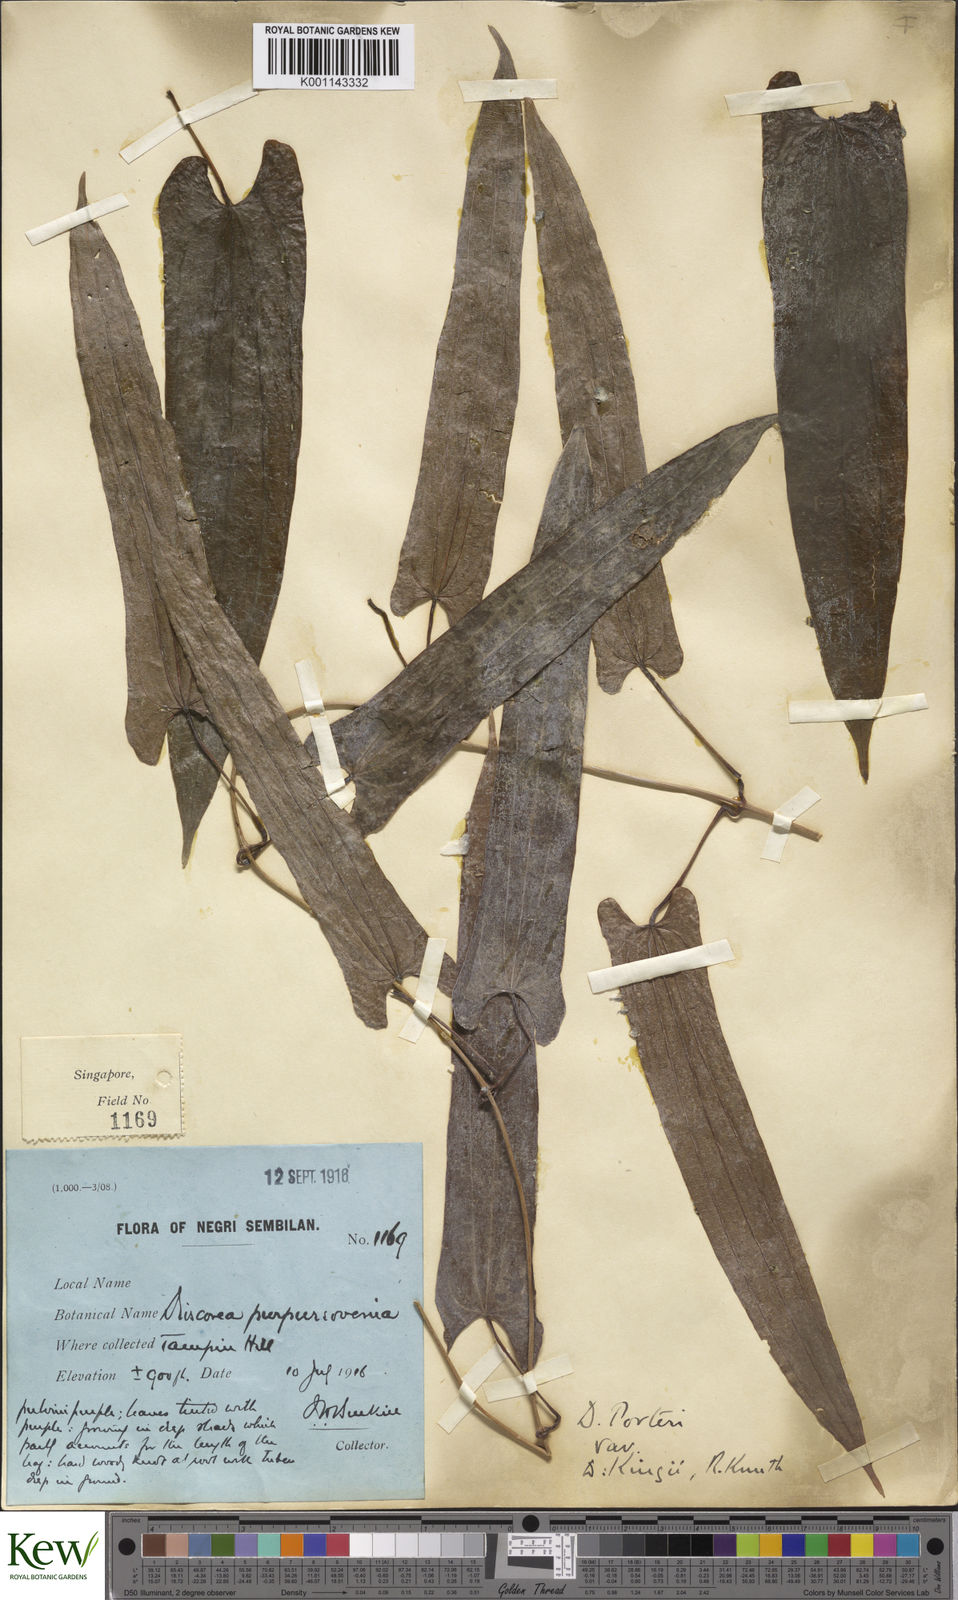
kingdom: Plantae
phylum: Tracheophyta
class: Liliopsida
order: Dioscoreales
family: Dioscoreaceae
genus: Dioscorea
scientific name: Dioscorea kingii
